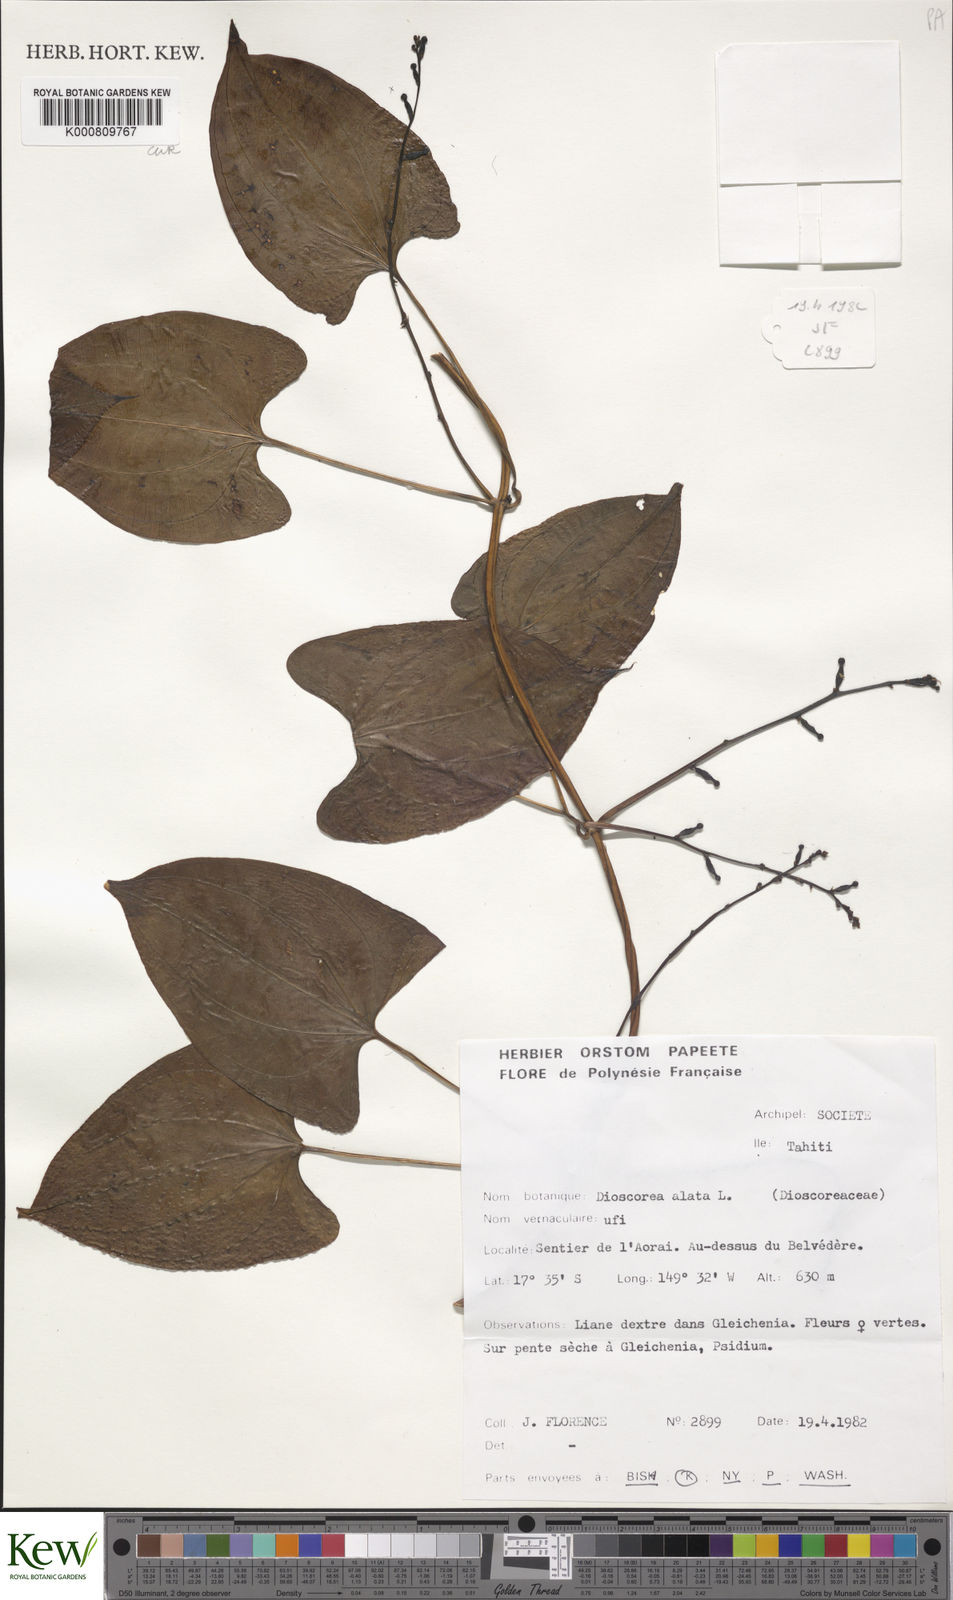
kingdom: Plantae
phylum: Tracheophyta
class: Liliopsida
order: Dioscoreales
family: Dioscoreaceae
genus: Dioscorea
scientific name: Dioscorea alata
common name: Water yam
